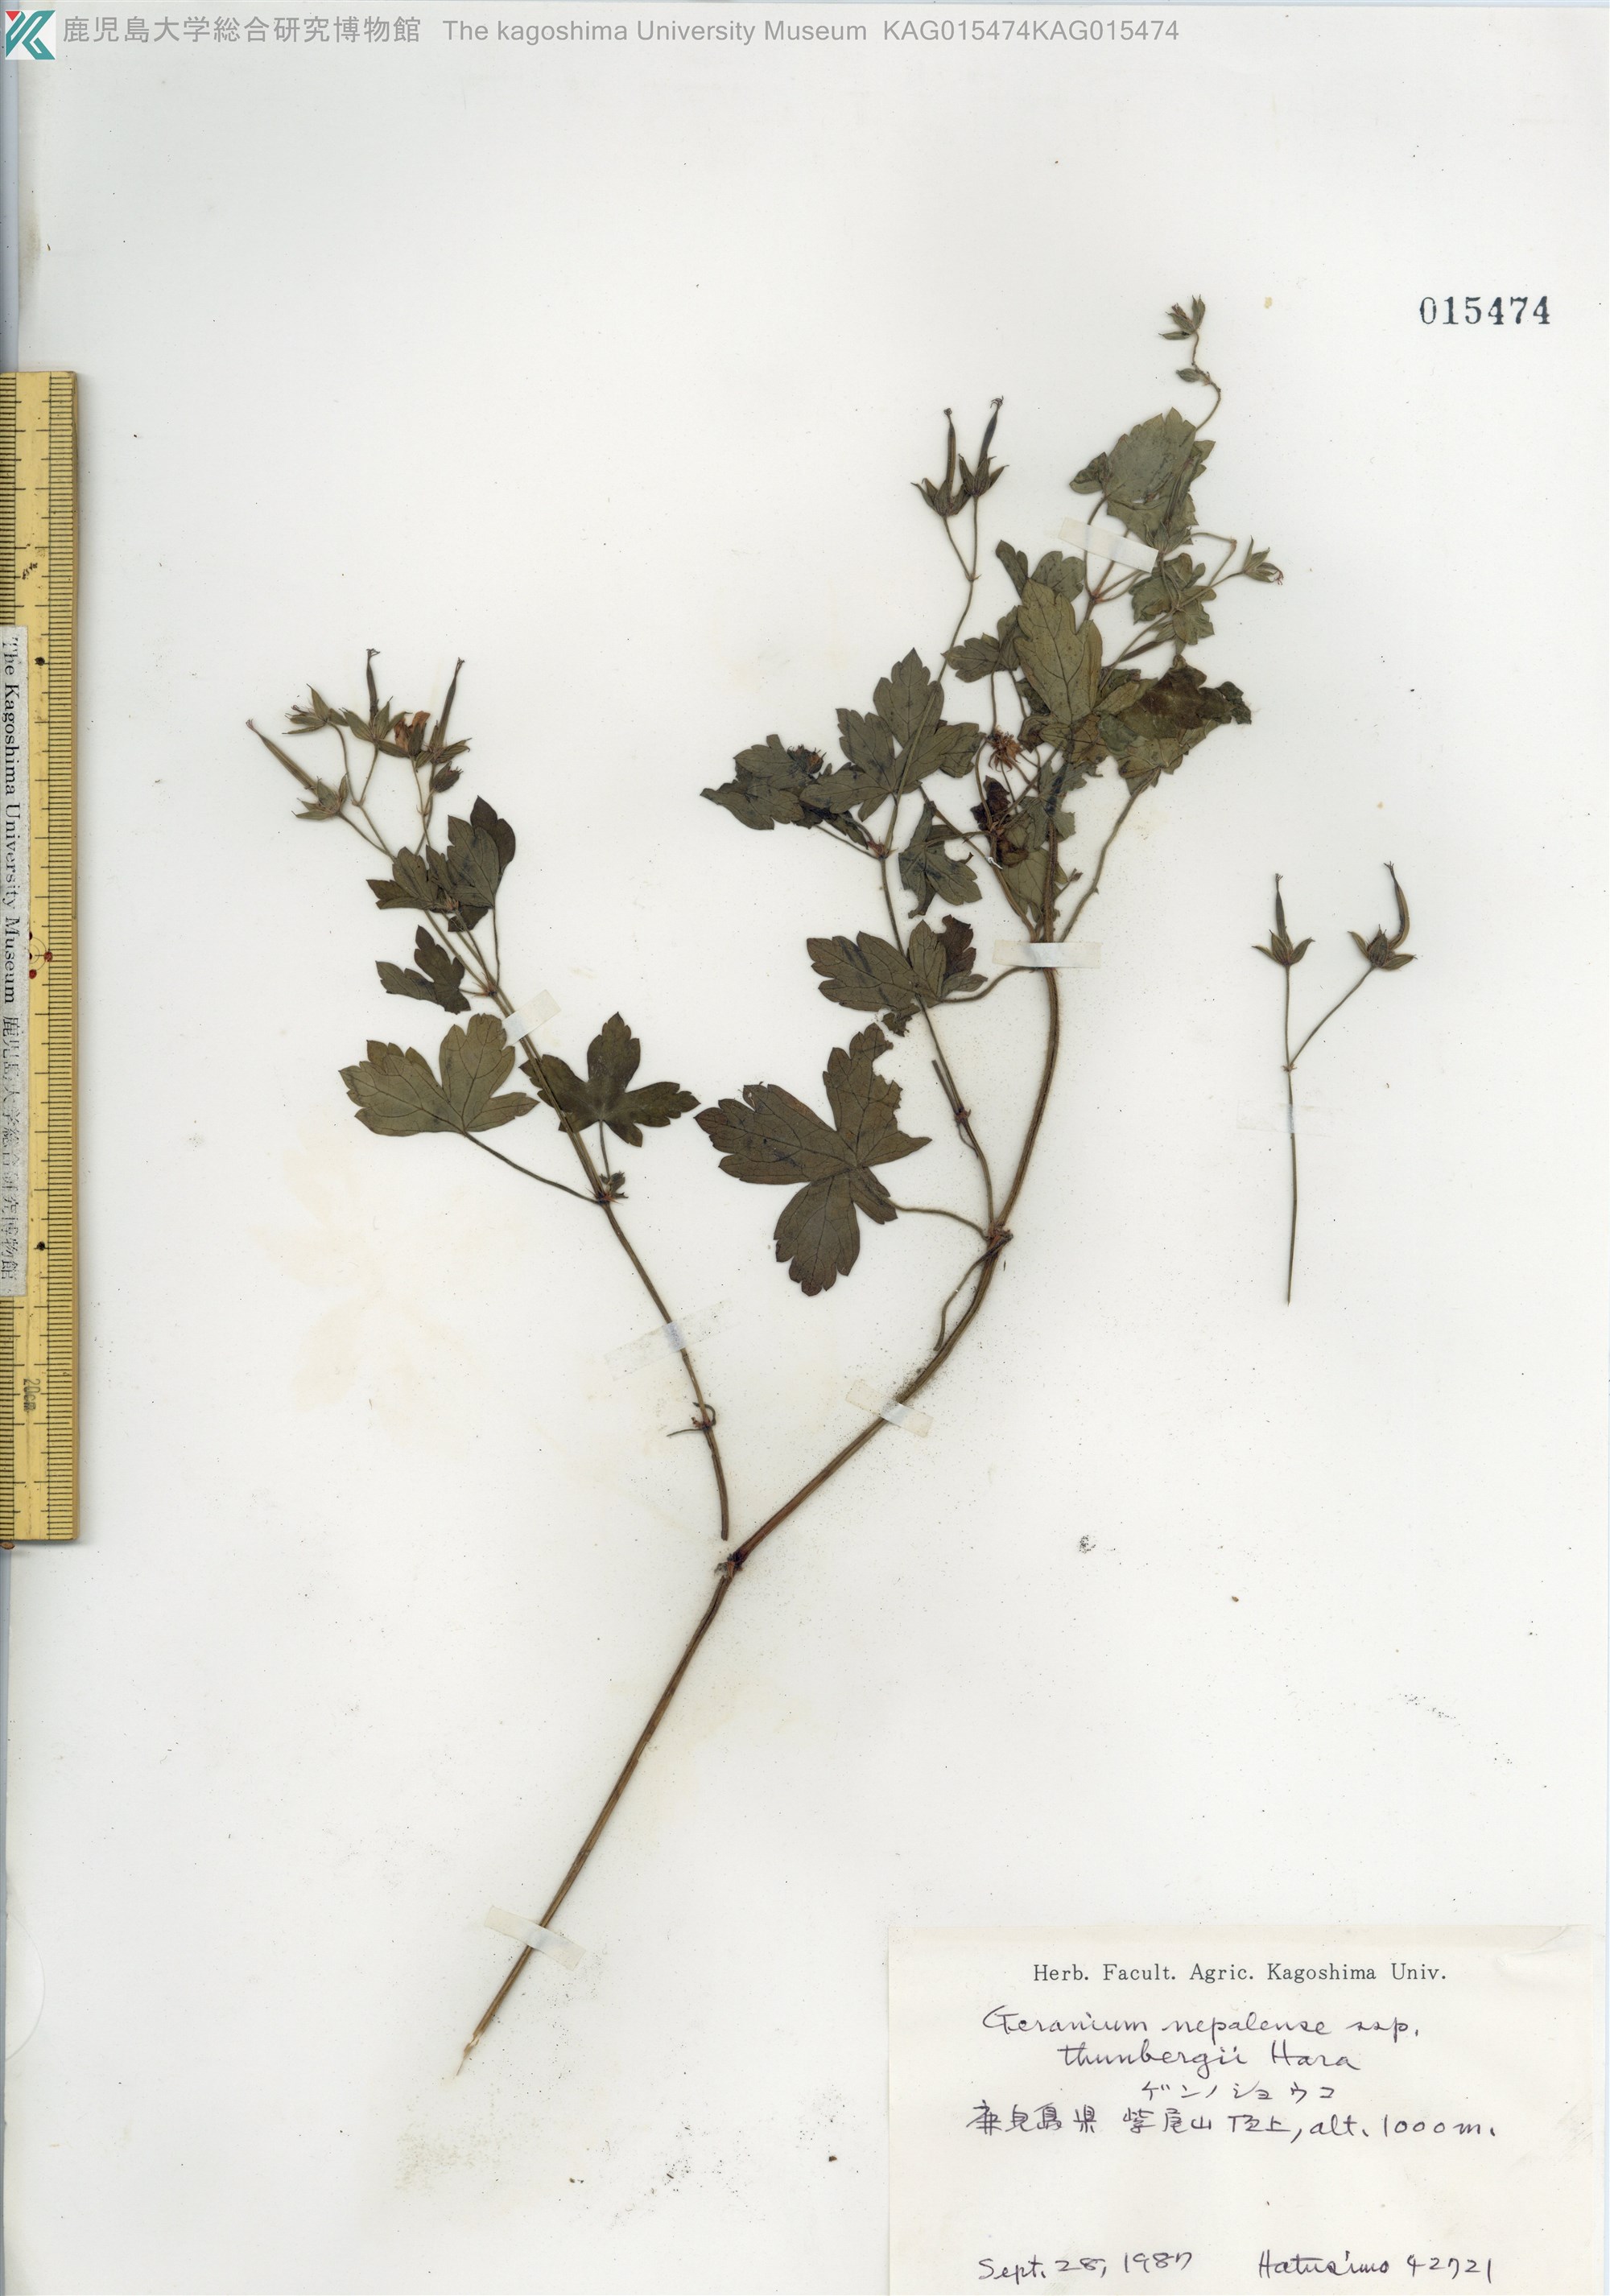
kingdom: Plantae
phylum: Tracheophyta
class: Magnoliopsida
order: Geraniales
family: Geraniaceae
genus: Geranium
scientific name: Geranium thunbergii
